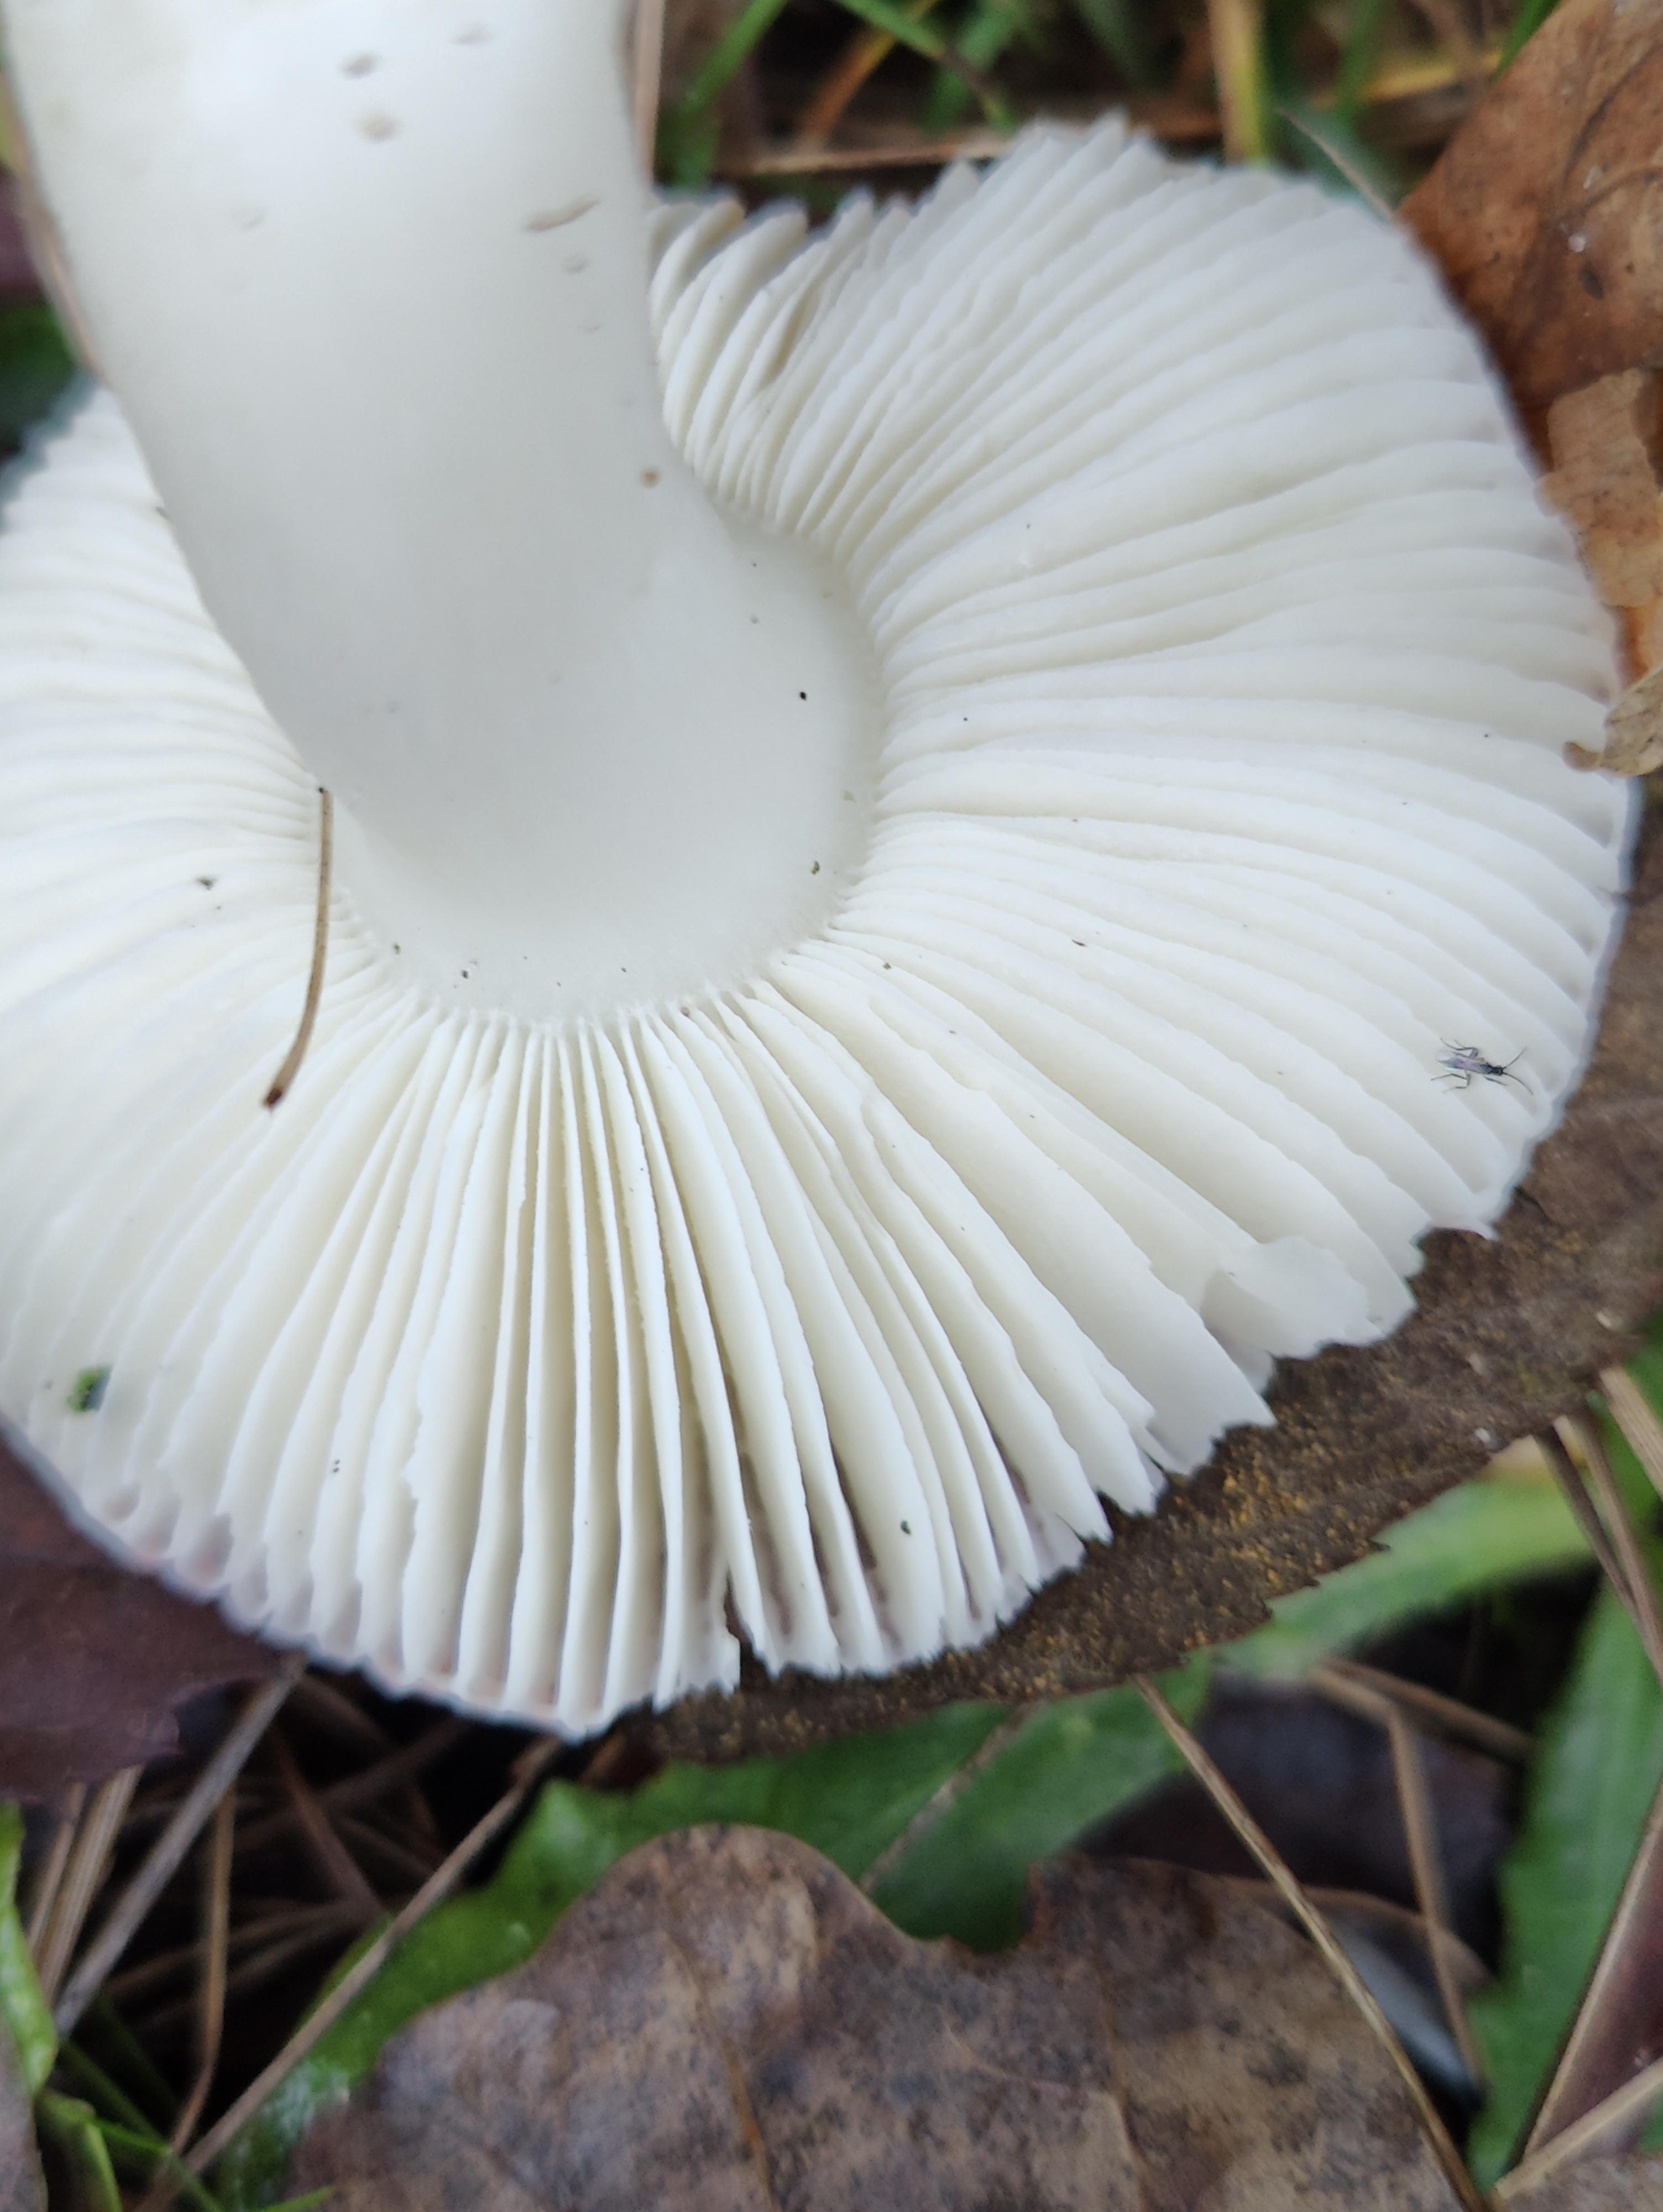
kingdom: Fungi
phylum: Basidiomycota
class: Agaricomycetes
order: Russulales
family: Russulaceae
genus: Russula
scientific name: Russula fragilis
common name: savbladet skørhat
